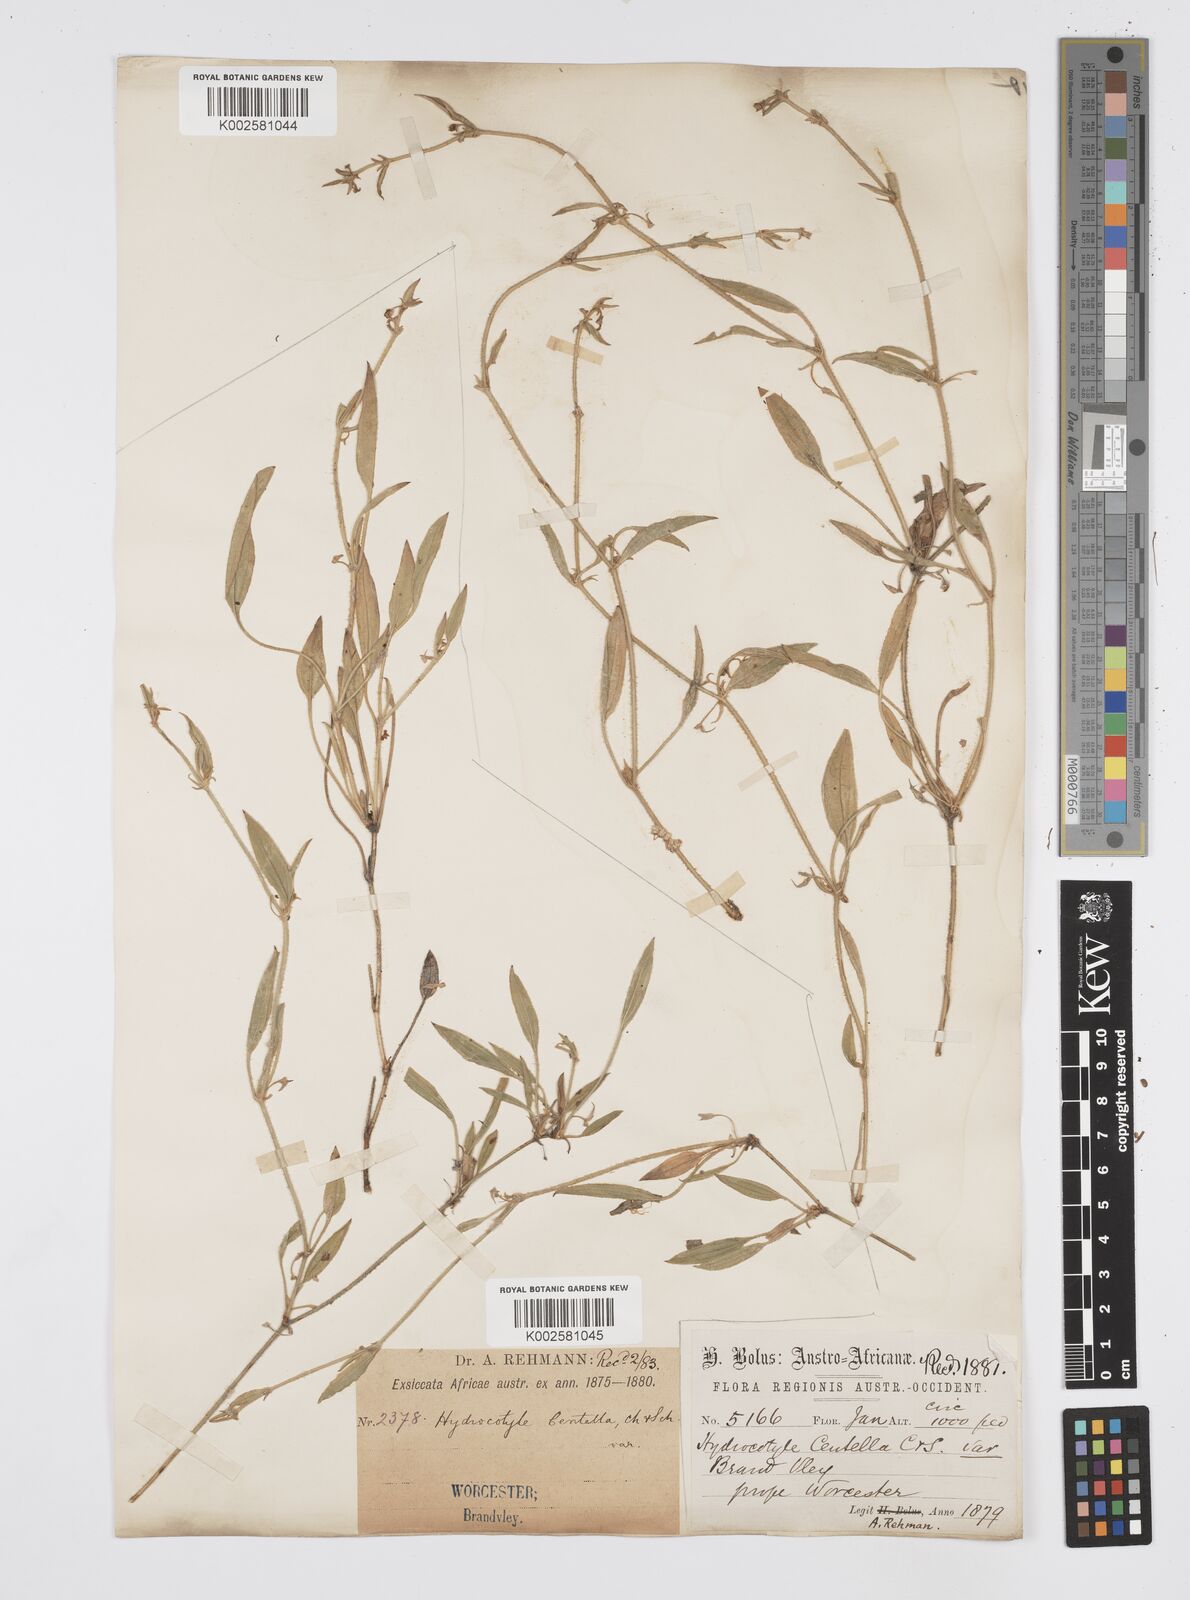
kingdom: Plantae
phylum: Tracheophyta
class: Magnoliopsida
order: Apiales
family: Apiaceae
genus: Centella
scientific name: Centella glabrata
